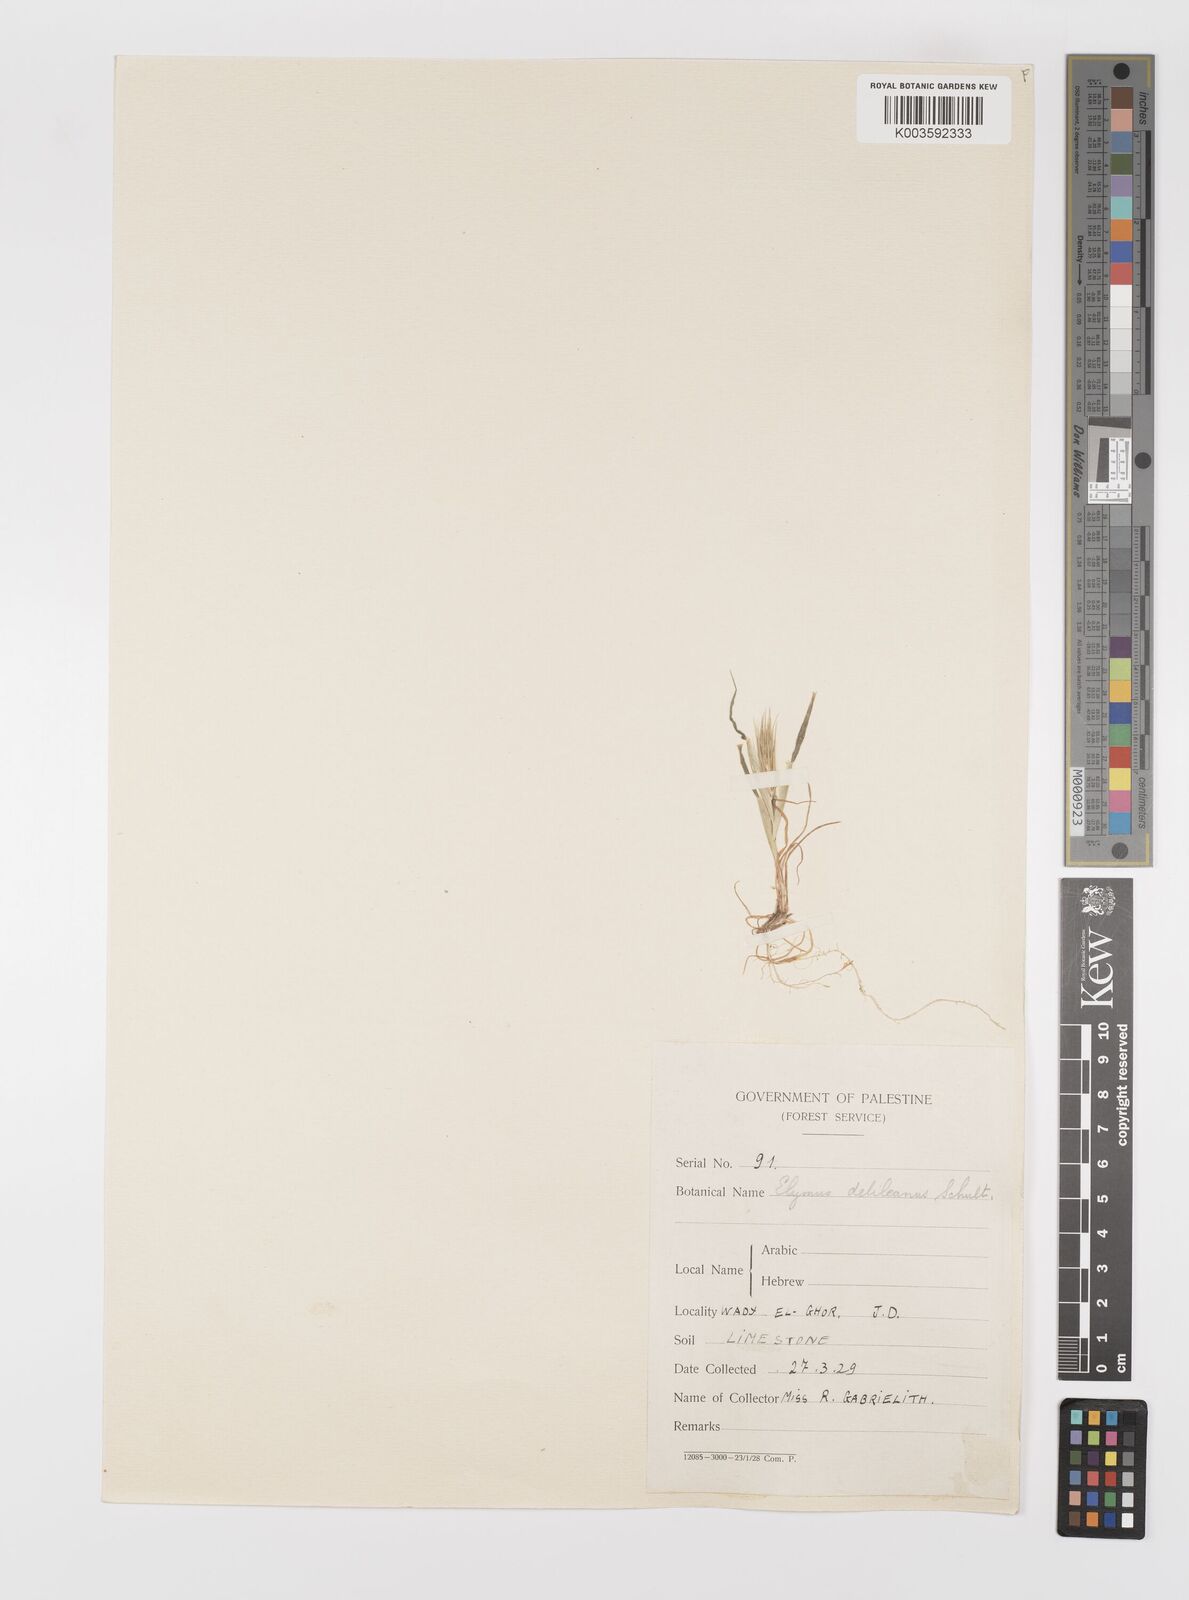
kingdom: Plantae
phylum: Tracheophyta
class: Liliopsida
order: Poales
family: Poaceae
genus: Crithopsis
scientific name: Crithopsis delileana
